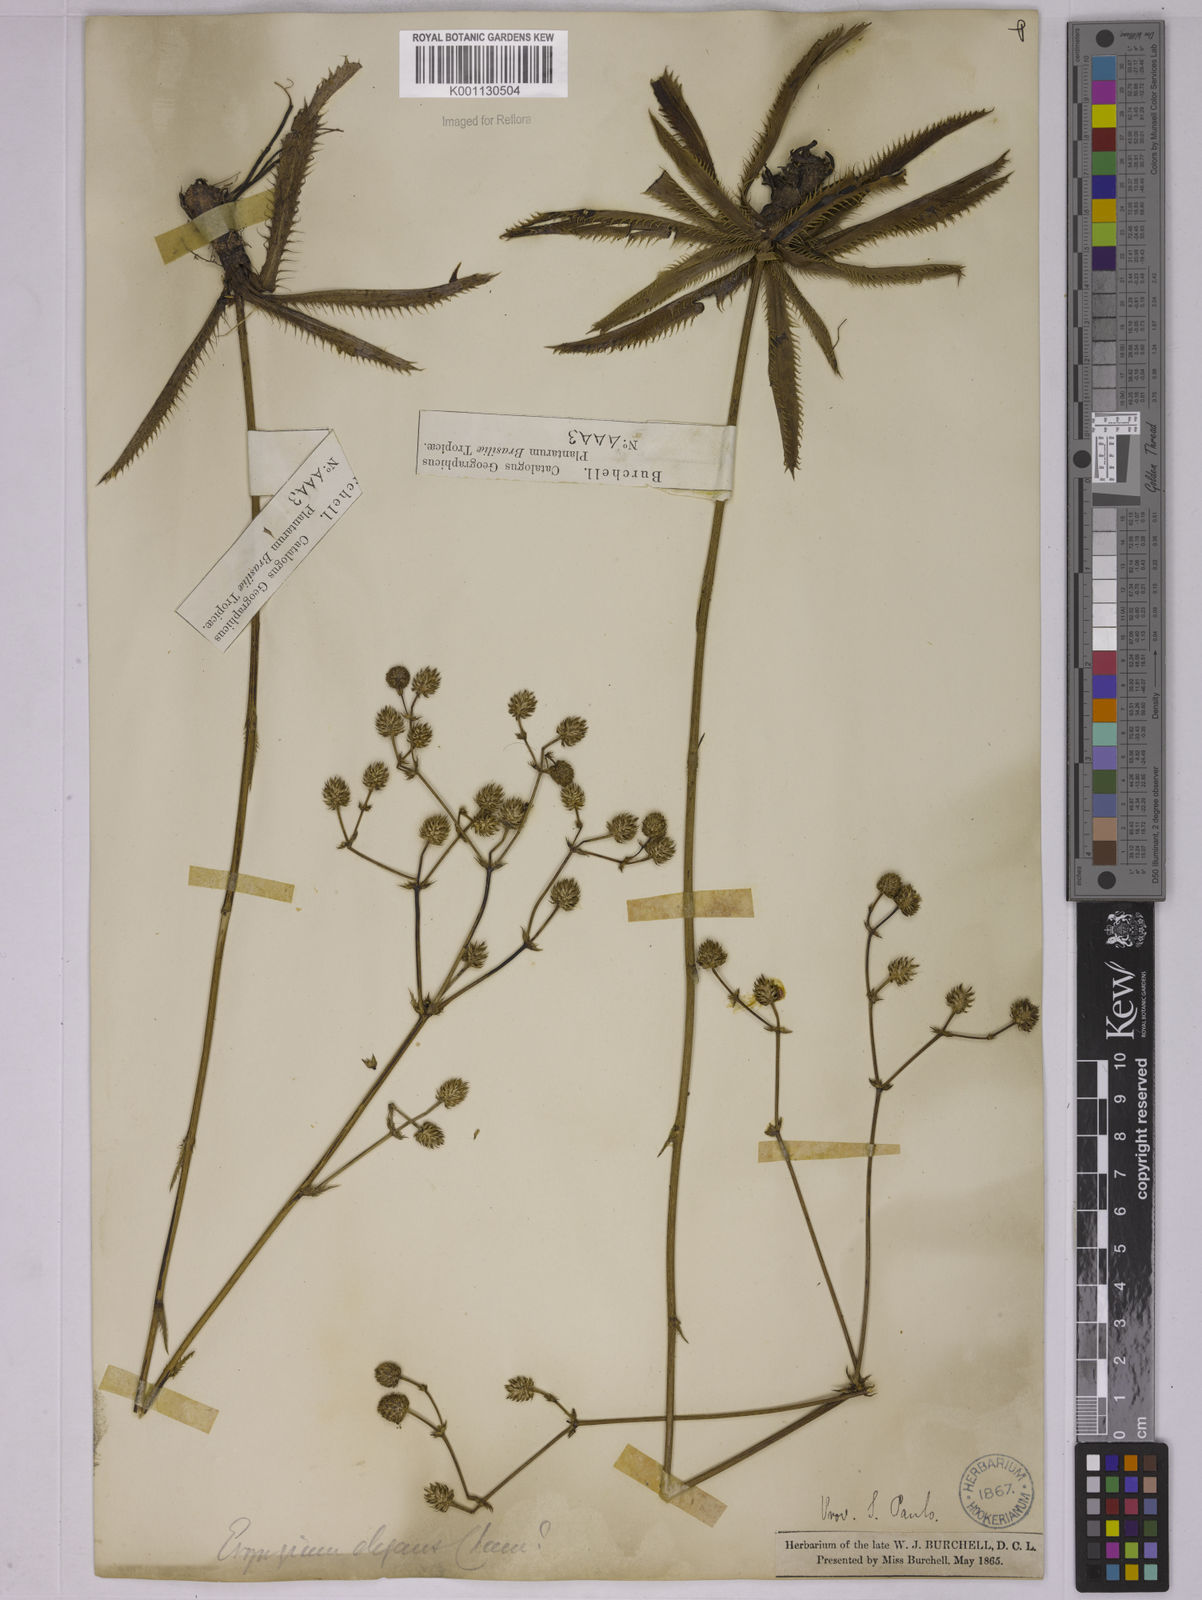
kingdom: Plantae
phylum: Tracheophyta
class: Magnoliopsida
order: Apiales
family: Apiaceae
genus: Eryngium
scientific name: Eryngium elegans
